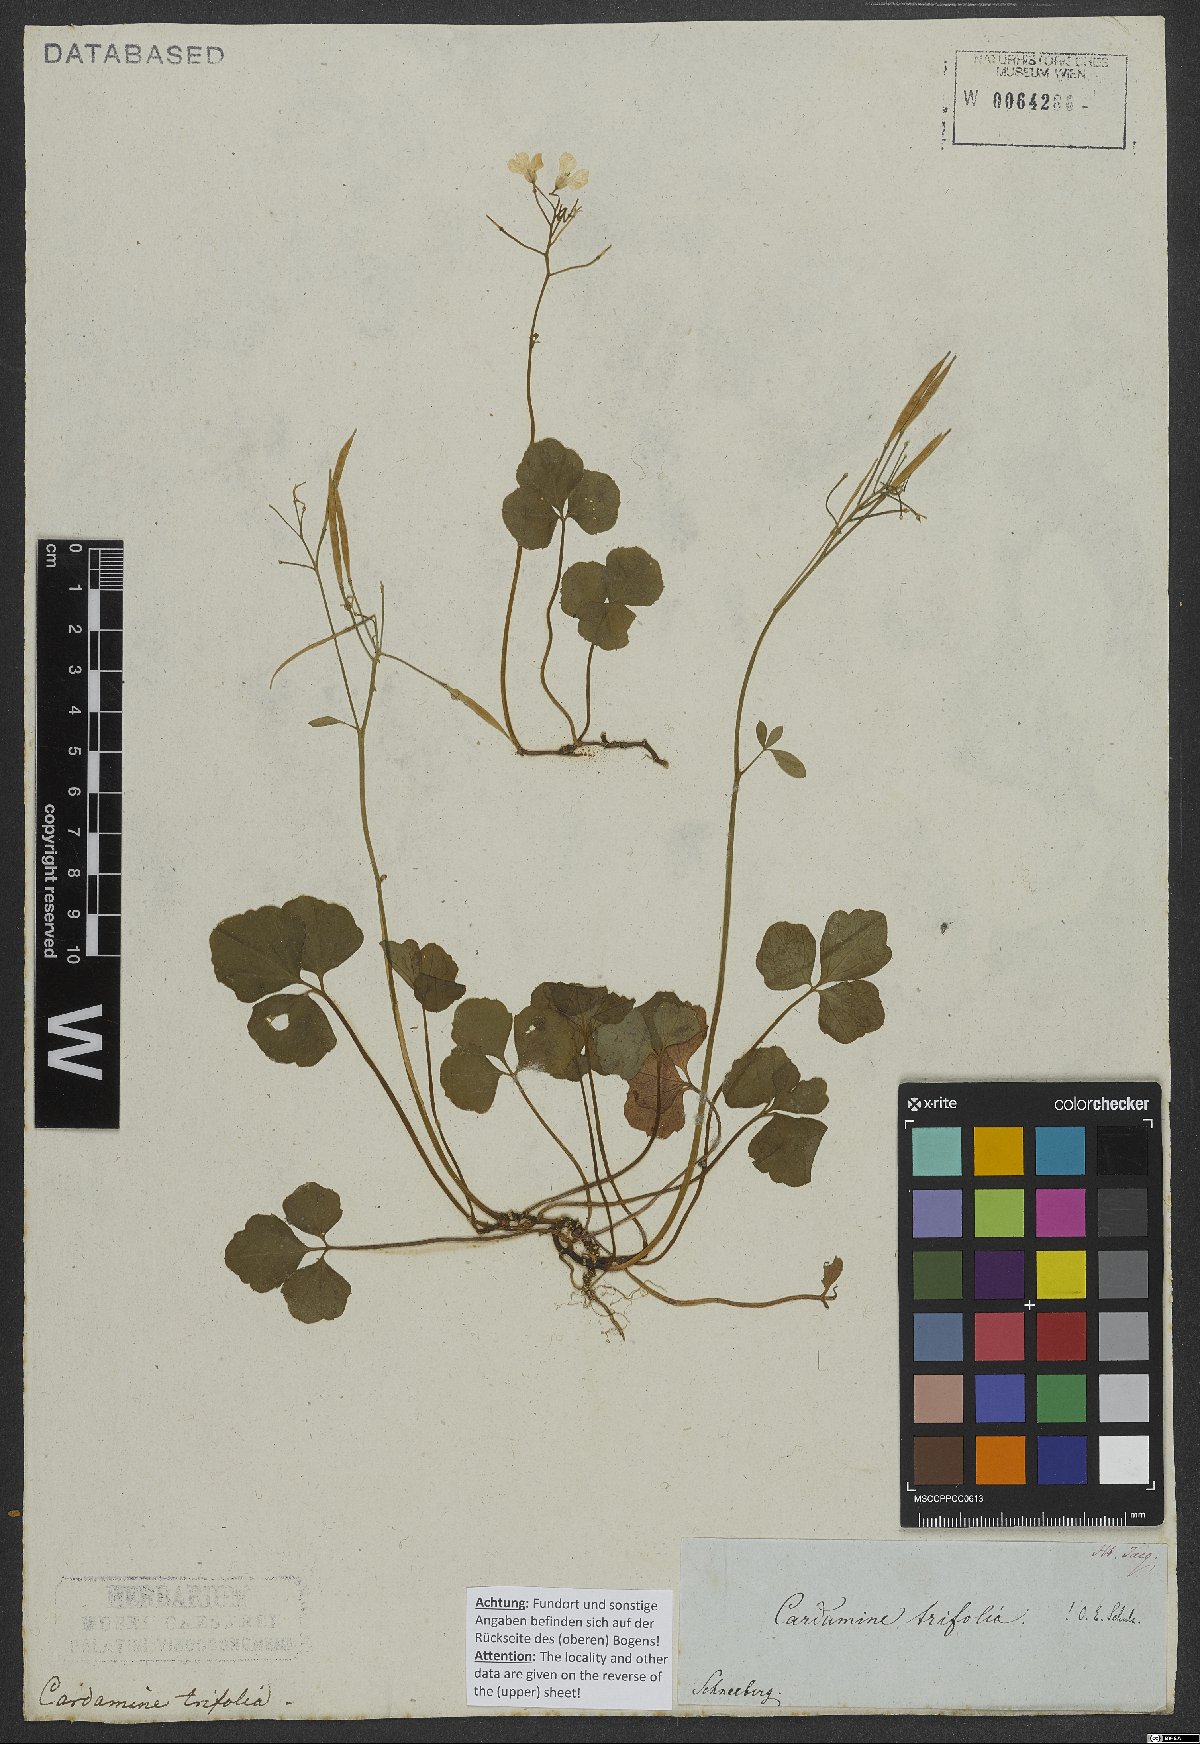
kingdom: Plantae
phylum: Tracheophyta
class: Magnoliopsida
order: Brassicales
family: Brassicaceae
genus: Cardamine
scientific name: Cardamine trifolia
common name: Trefoil cress
